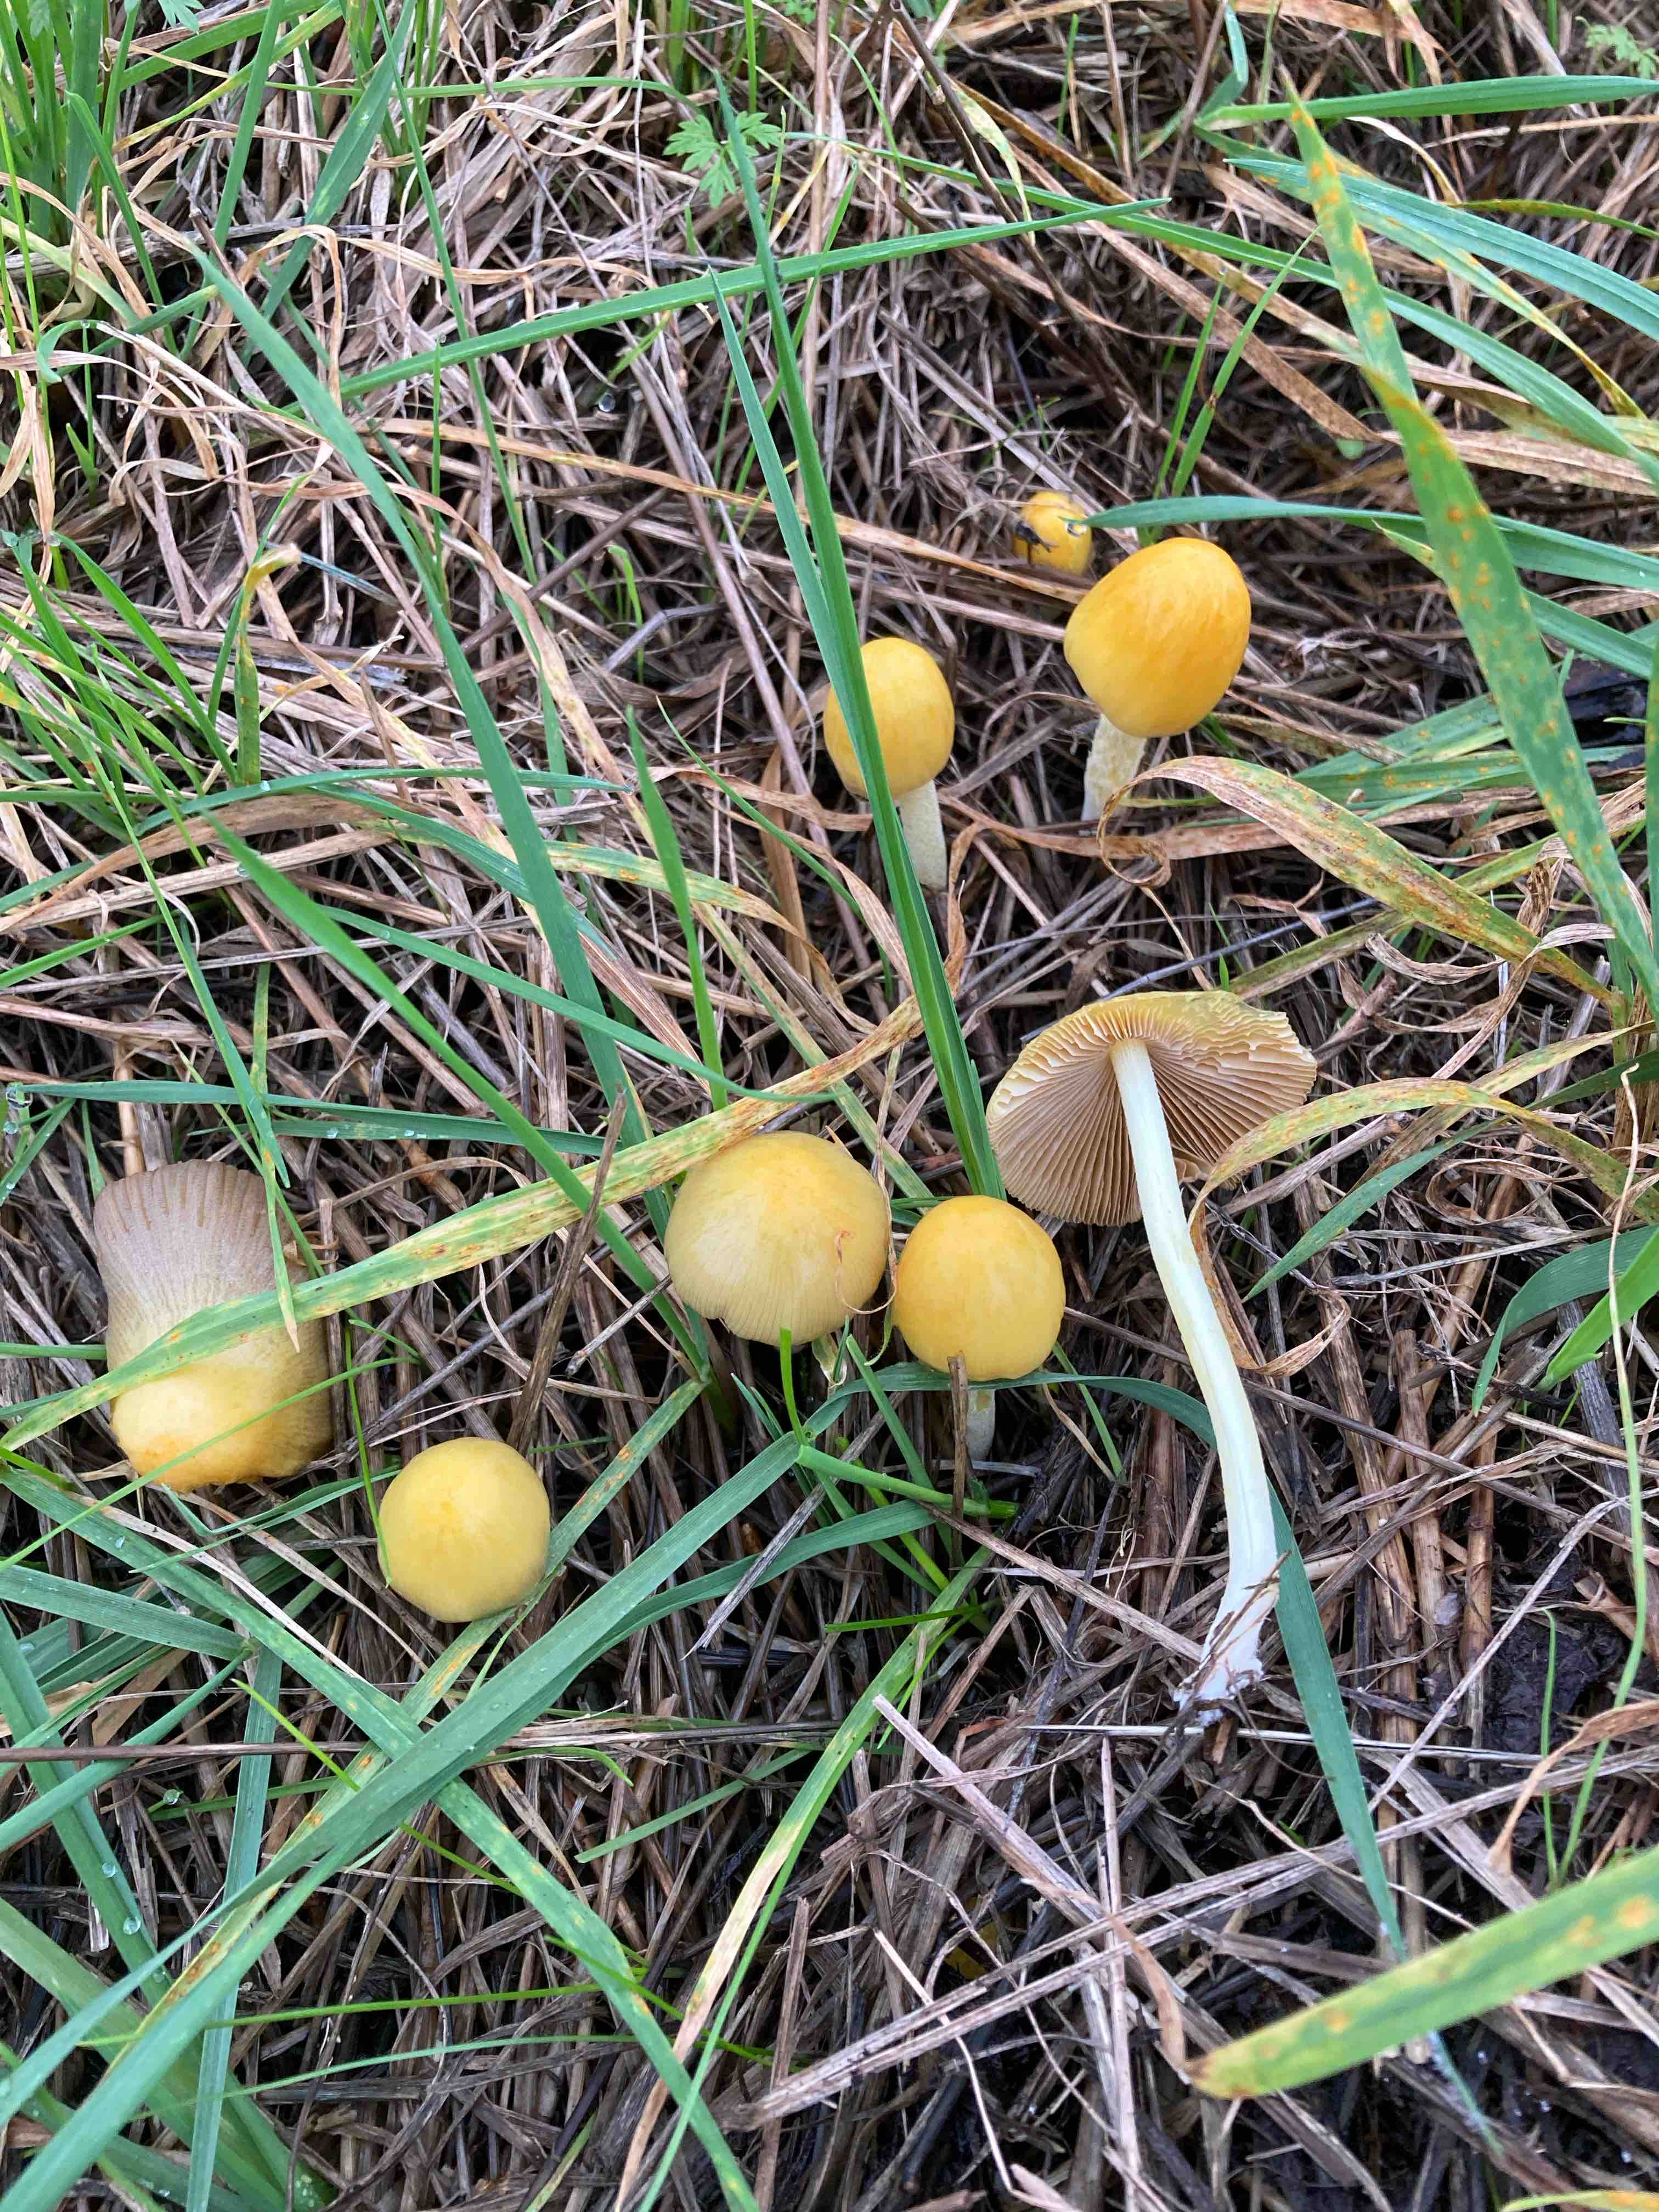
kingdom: Fungi
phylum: Basidiomycota
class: Agaricomycetes
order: Agaricales
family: Bolbitiaceae
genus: Bolbitius
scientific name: Bolbitius titubans
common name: almindelig gulhat
